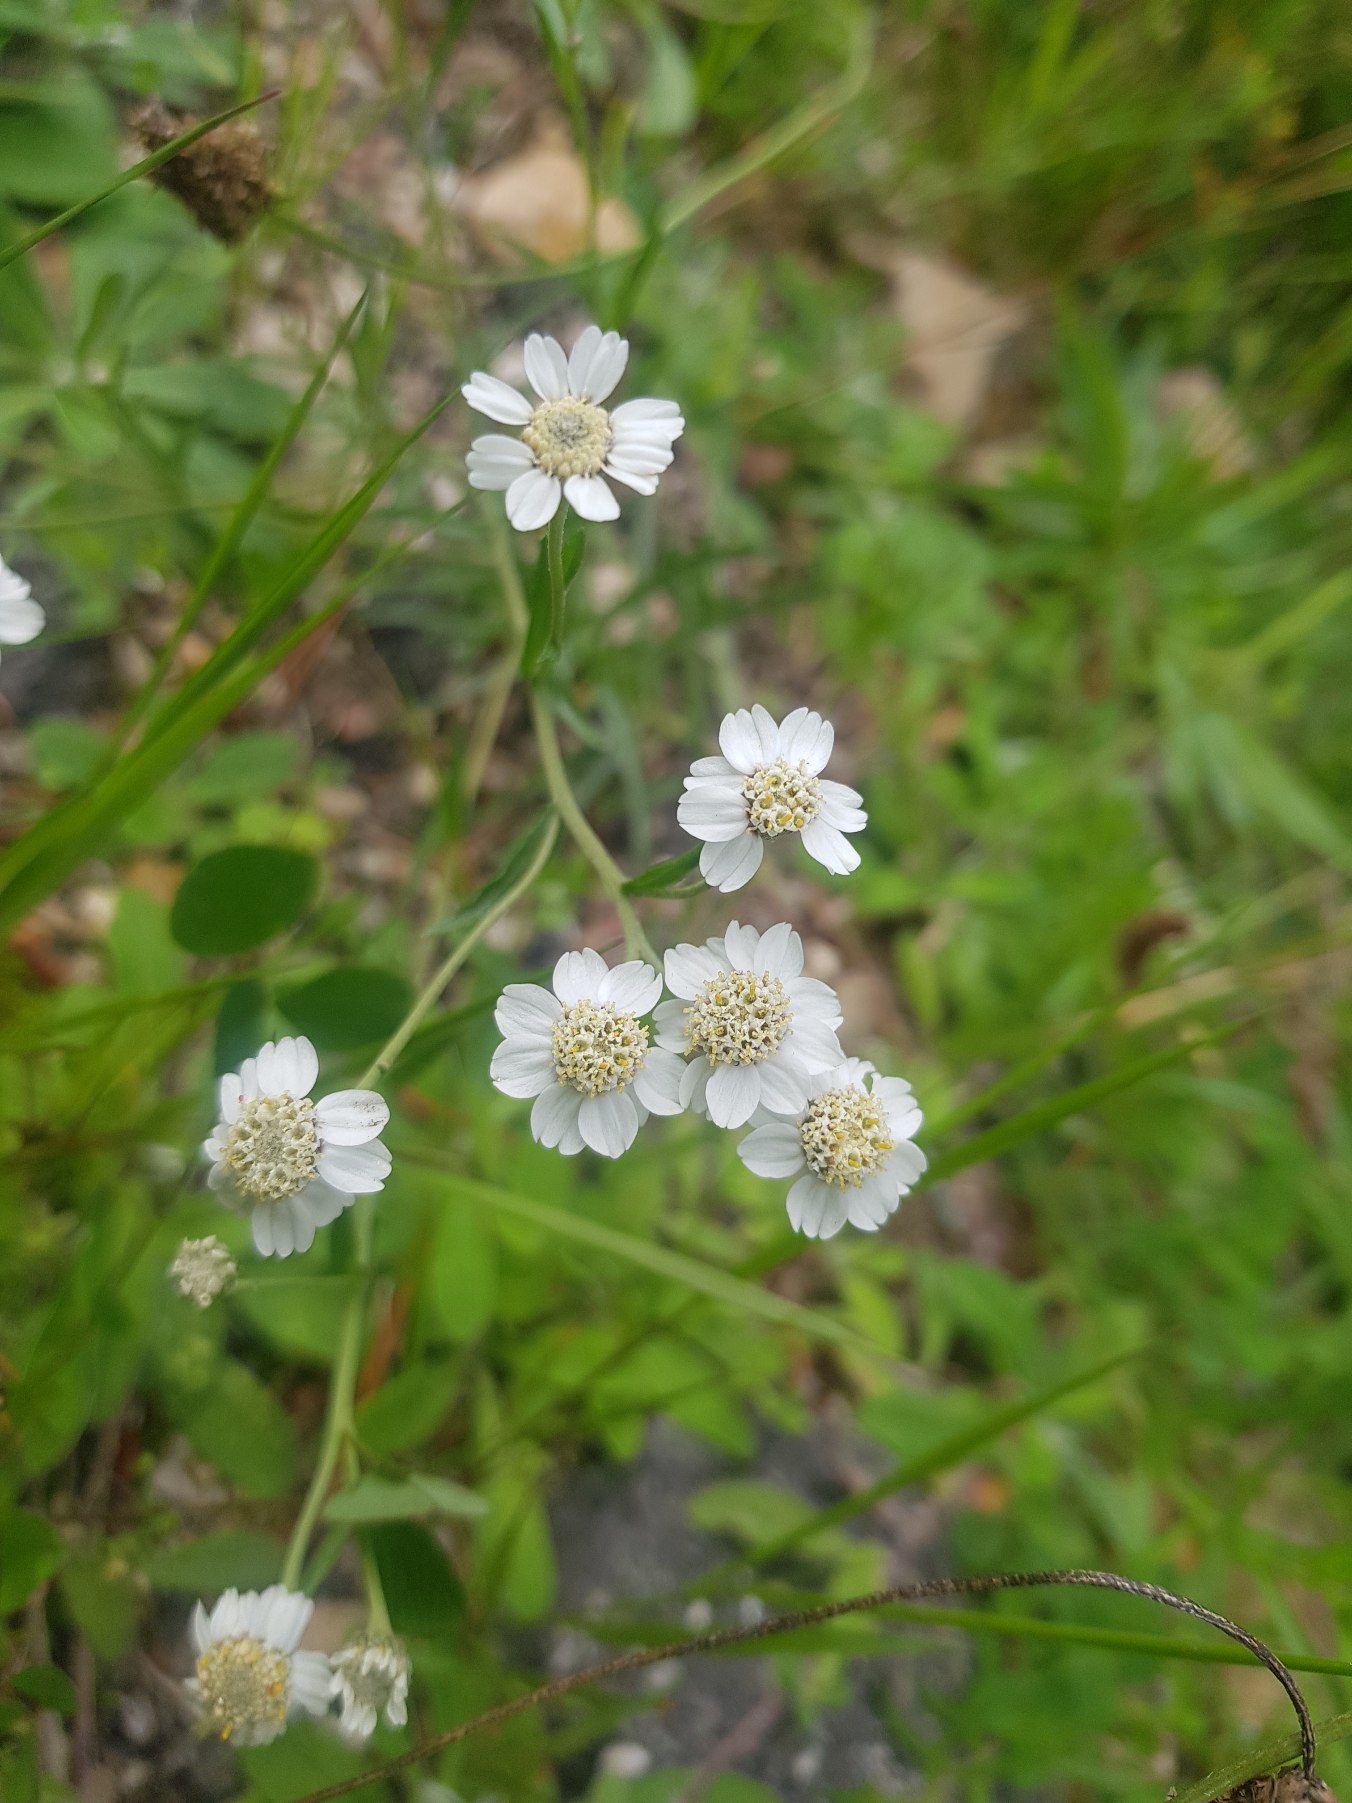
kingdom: Plantae
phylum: Tracheophyta
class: Magnoliopsida
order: Asterales
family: Asteraceae
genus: Achillea
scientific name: Achillea ptarmica
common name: Nyse-røllike
